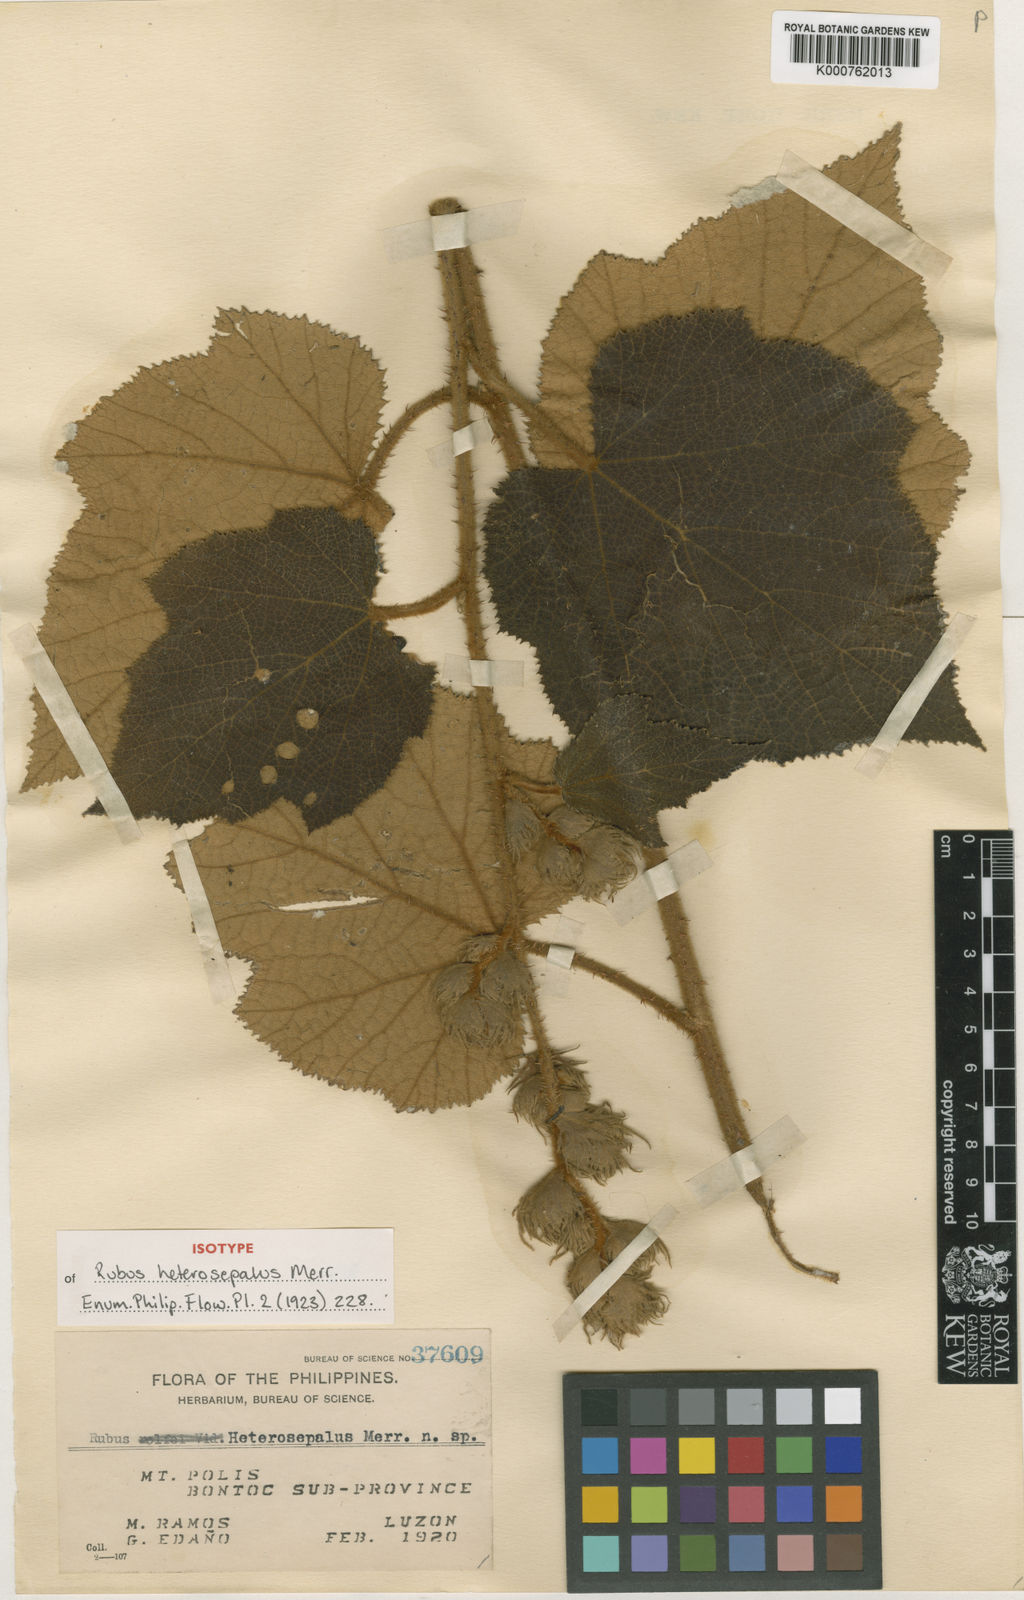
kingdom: Plantae
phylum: Tracheophyta
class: Magnoliopsida
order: Rosales
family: Rosaceae
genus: Rubus
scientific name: Rubus heterosepalus
